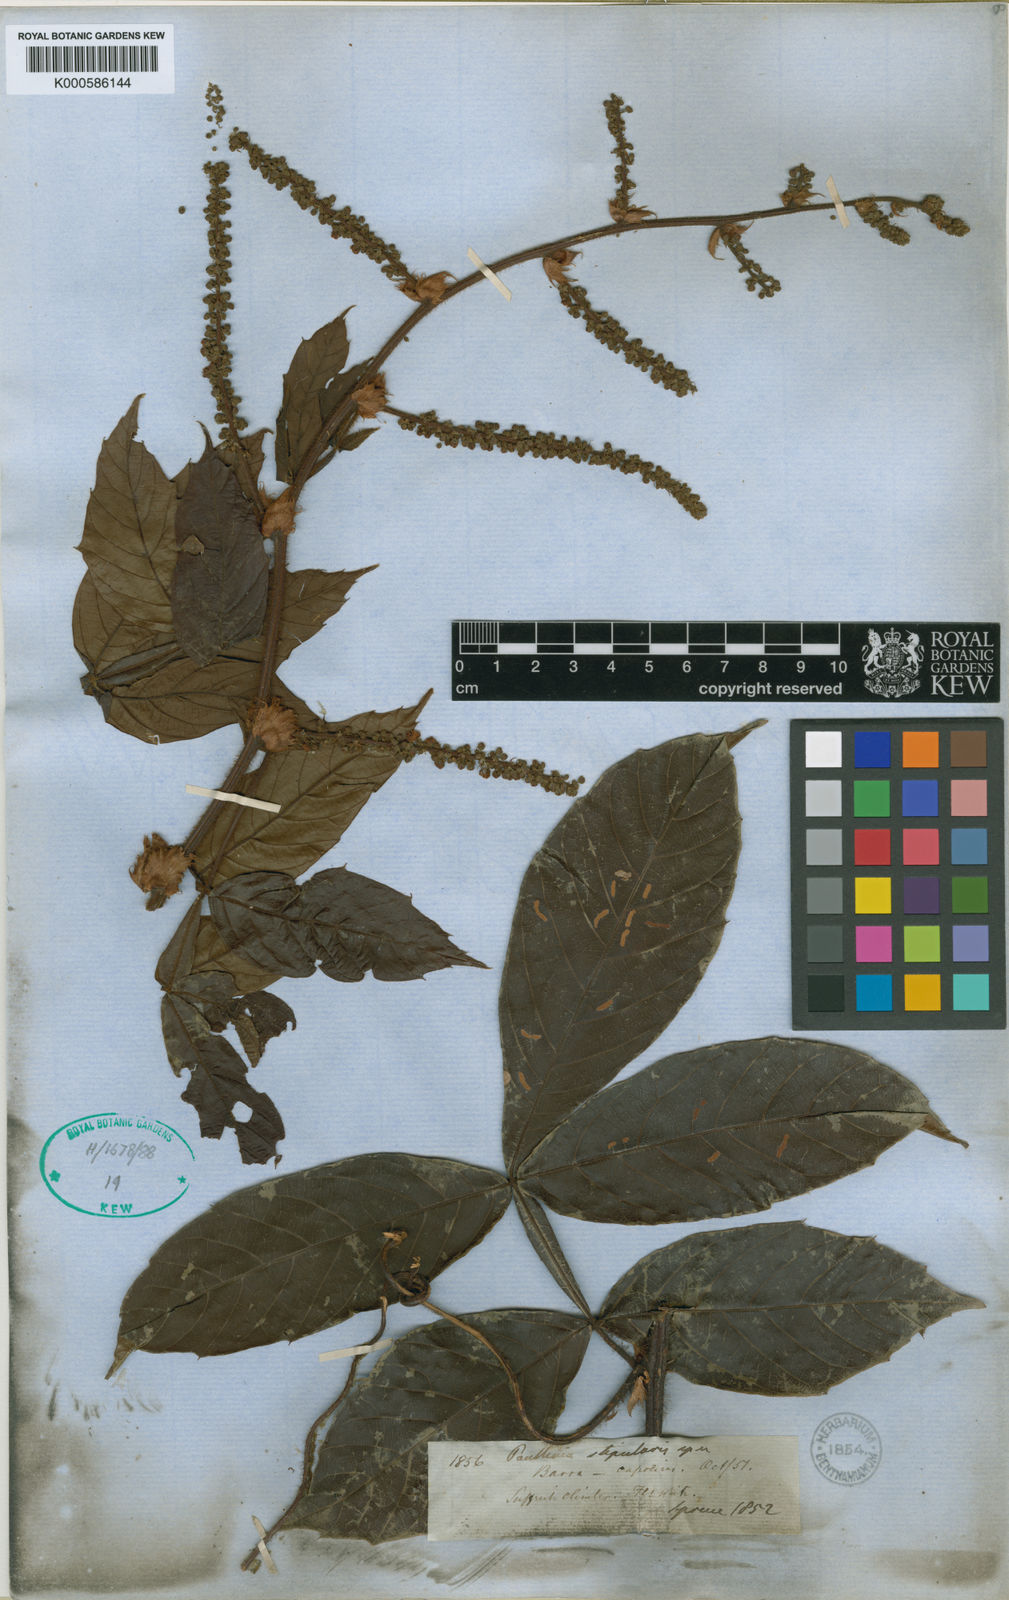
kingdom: Plantae
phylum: Tracheophyta
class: Magnoliopsida
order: Sapindales
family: Sapindaceae
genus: Paullinia
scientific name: Paullinia stipularis
